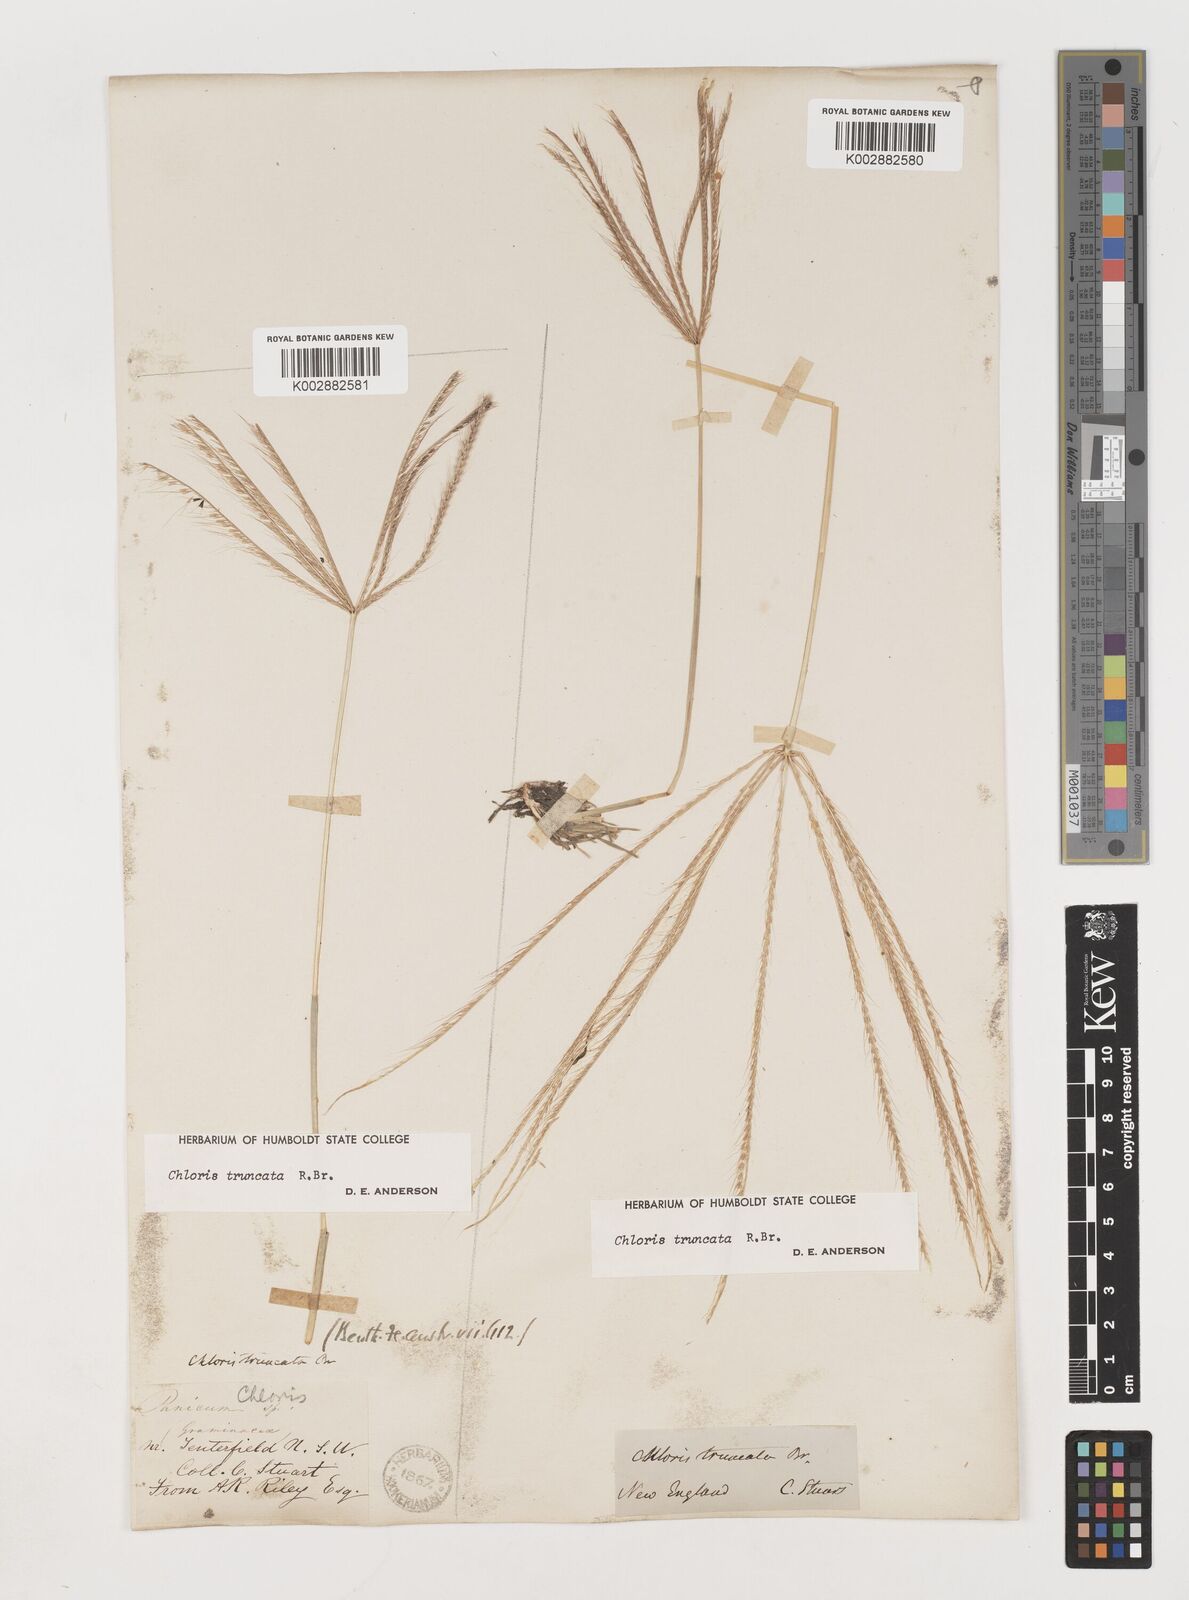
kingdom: Plantae
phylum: Tracheophyta
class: Liliopsida
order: Poales
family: Poaceae
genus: Chloris
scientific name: Chloris truncata
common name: Windmill-grass
